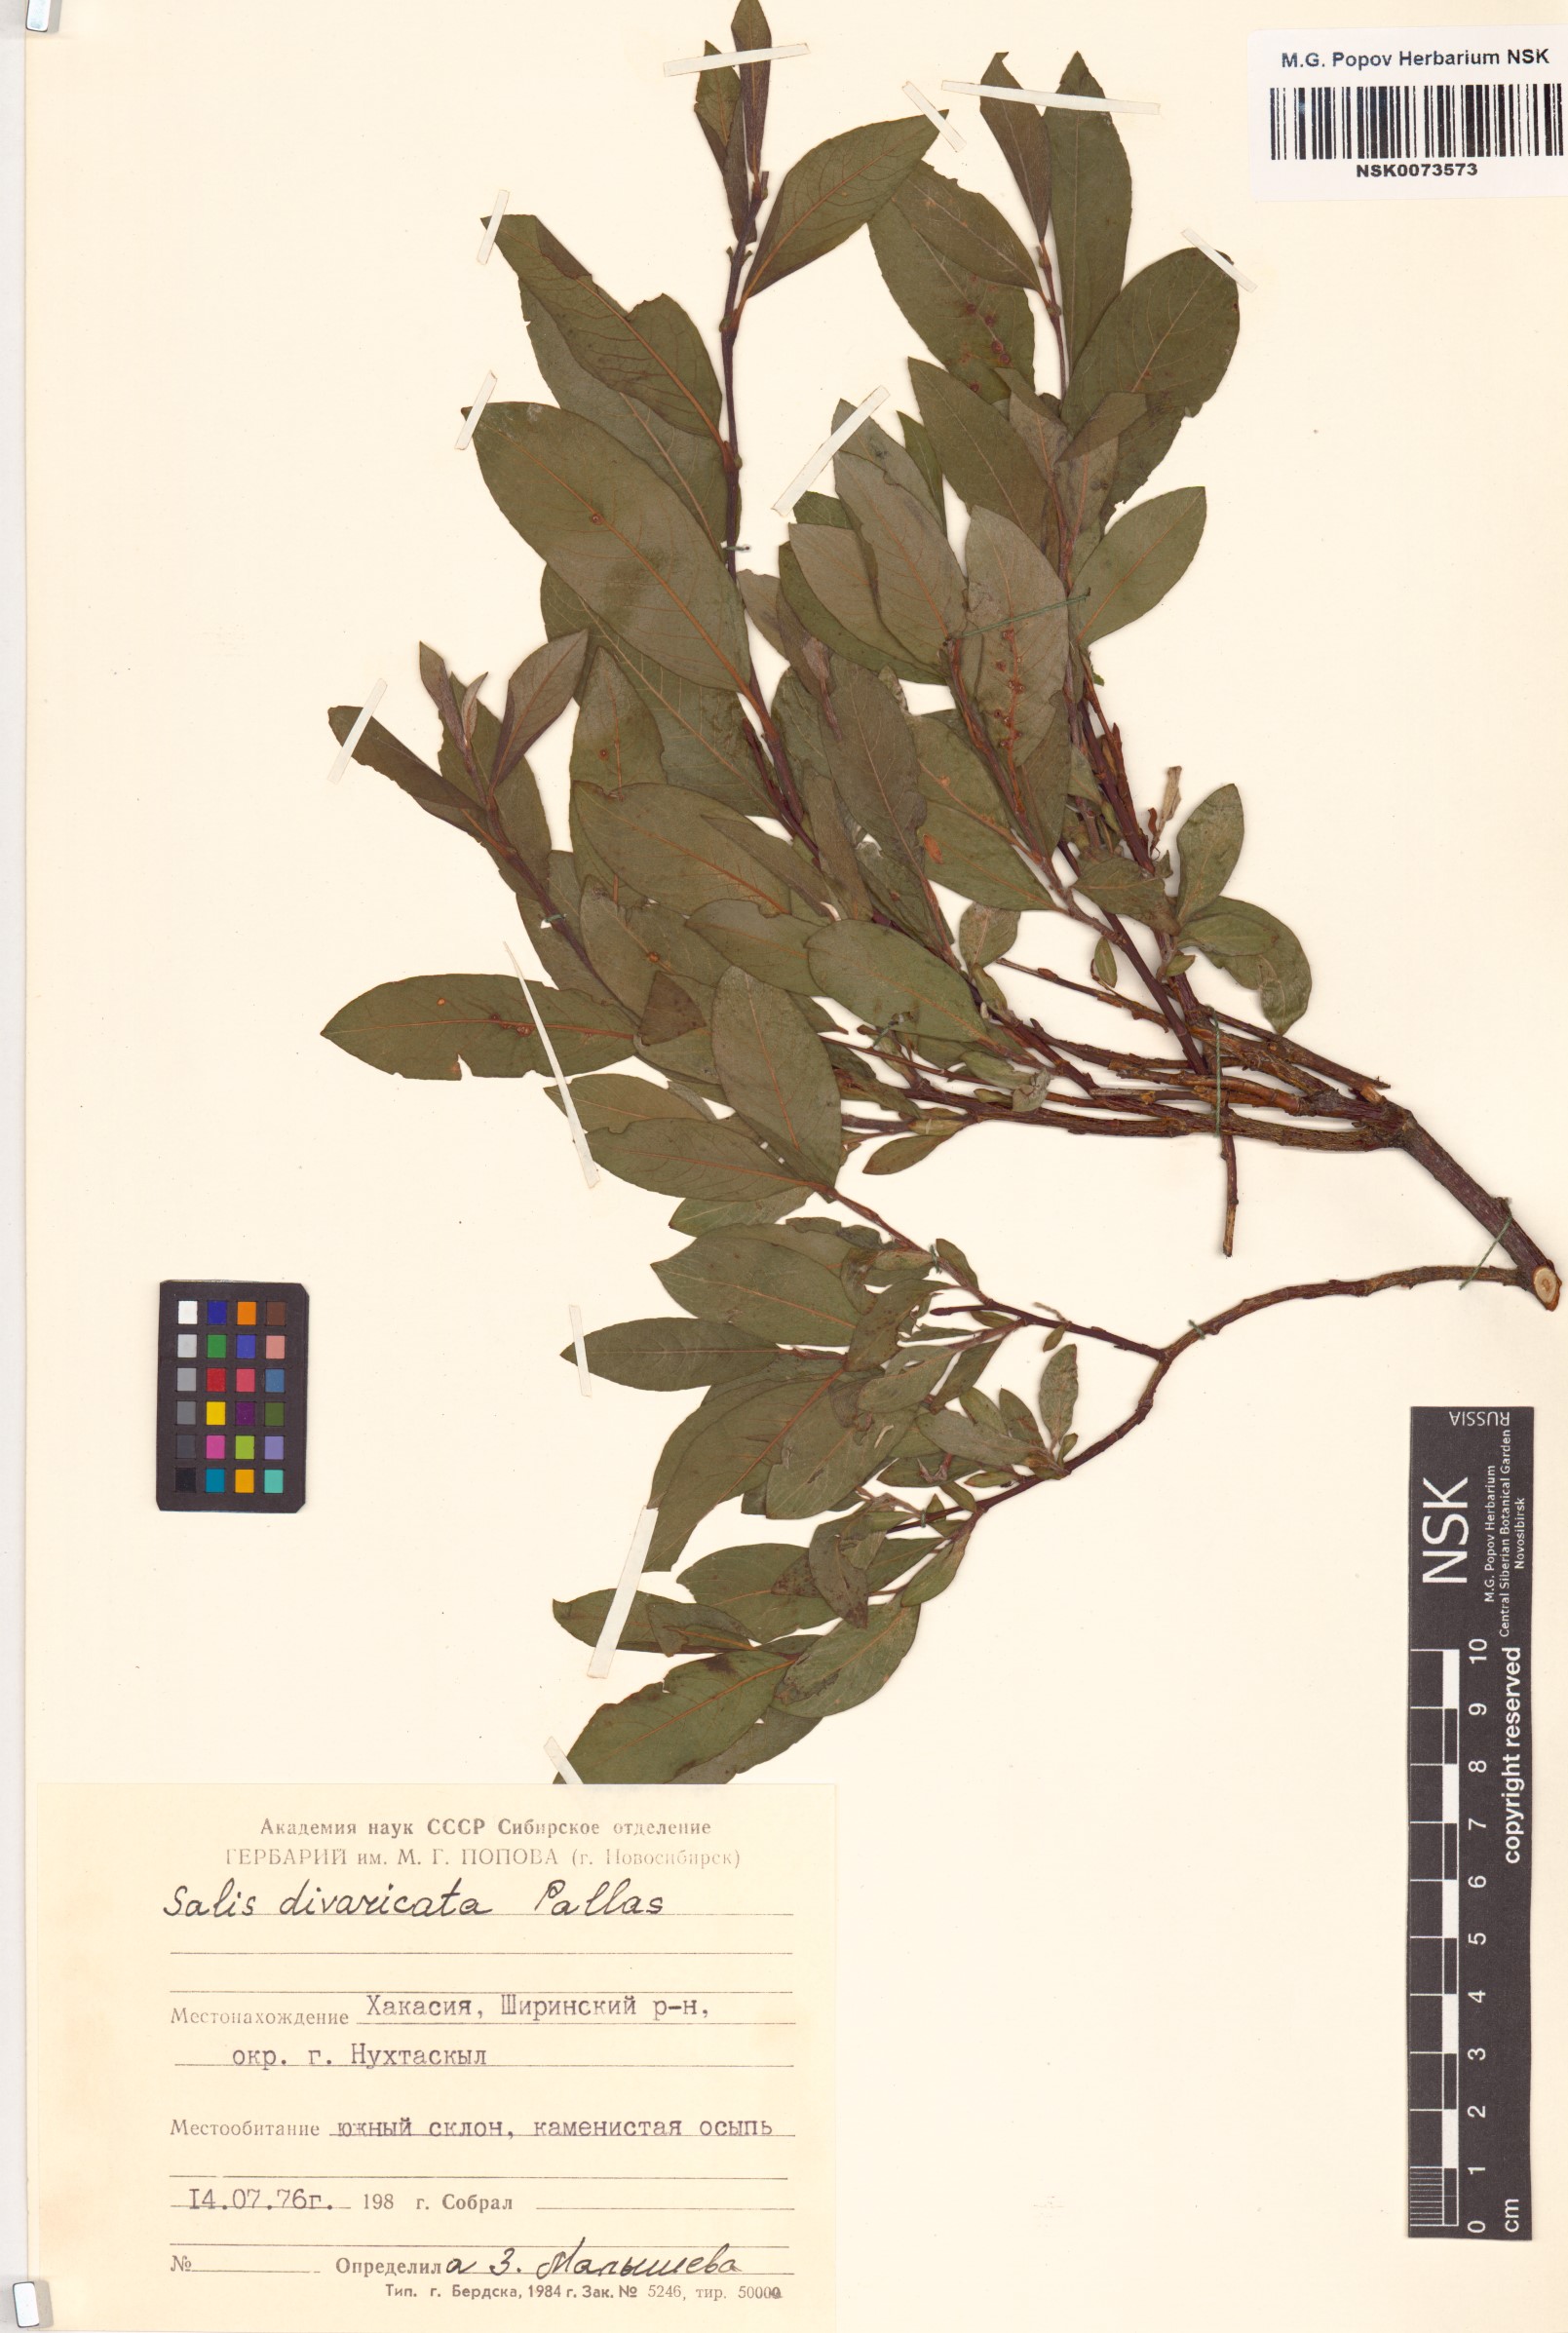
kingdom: Plantae
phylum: Tracheophyta
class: Magnoliopsida
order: Malpighiales
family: Salicaceae
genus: Salix
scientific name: Salix divaricata
